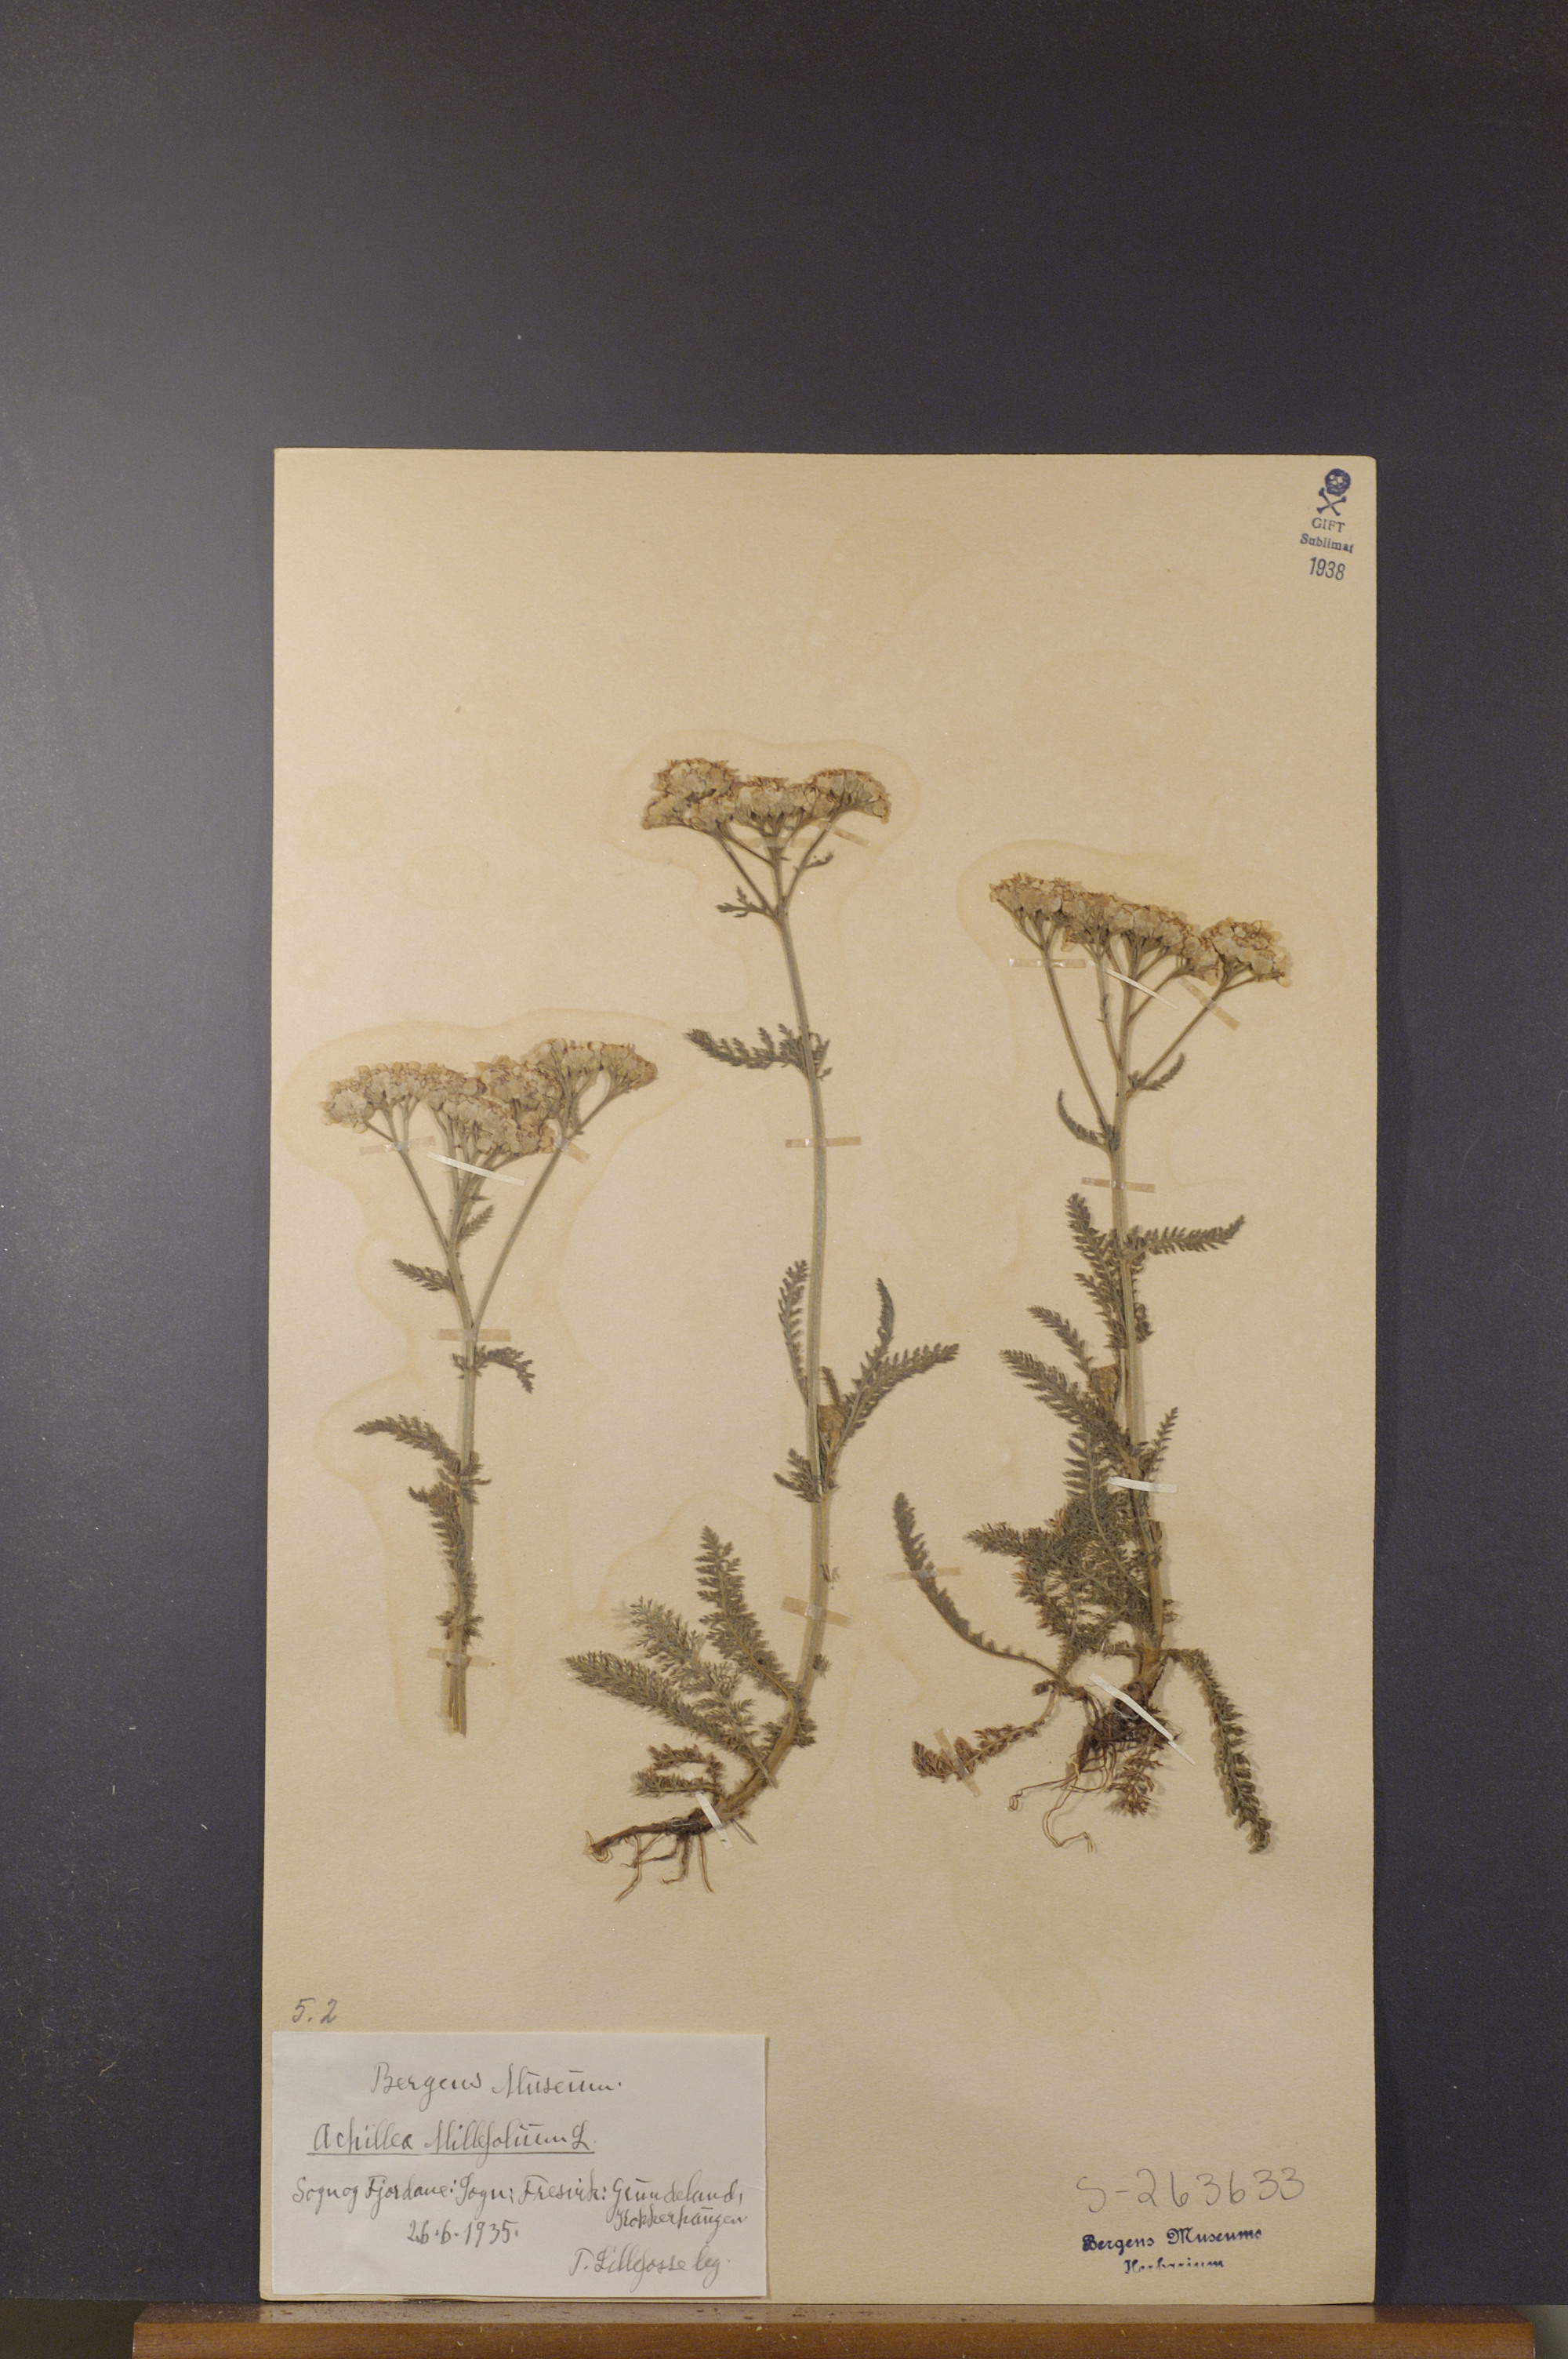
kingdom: Plantae
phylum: Tracheophyta
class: Magnoliopsida
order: Asterales
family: Asteraceae
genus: Achillea
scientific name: Achillea millefolium
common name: Yarrow
